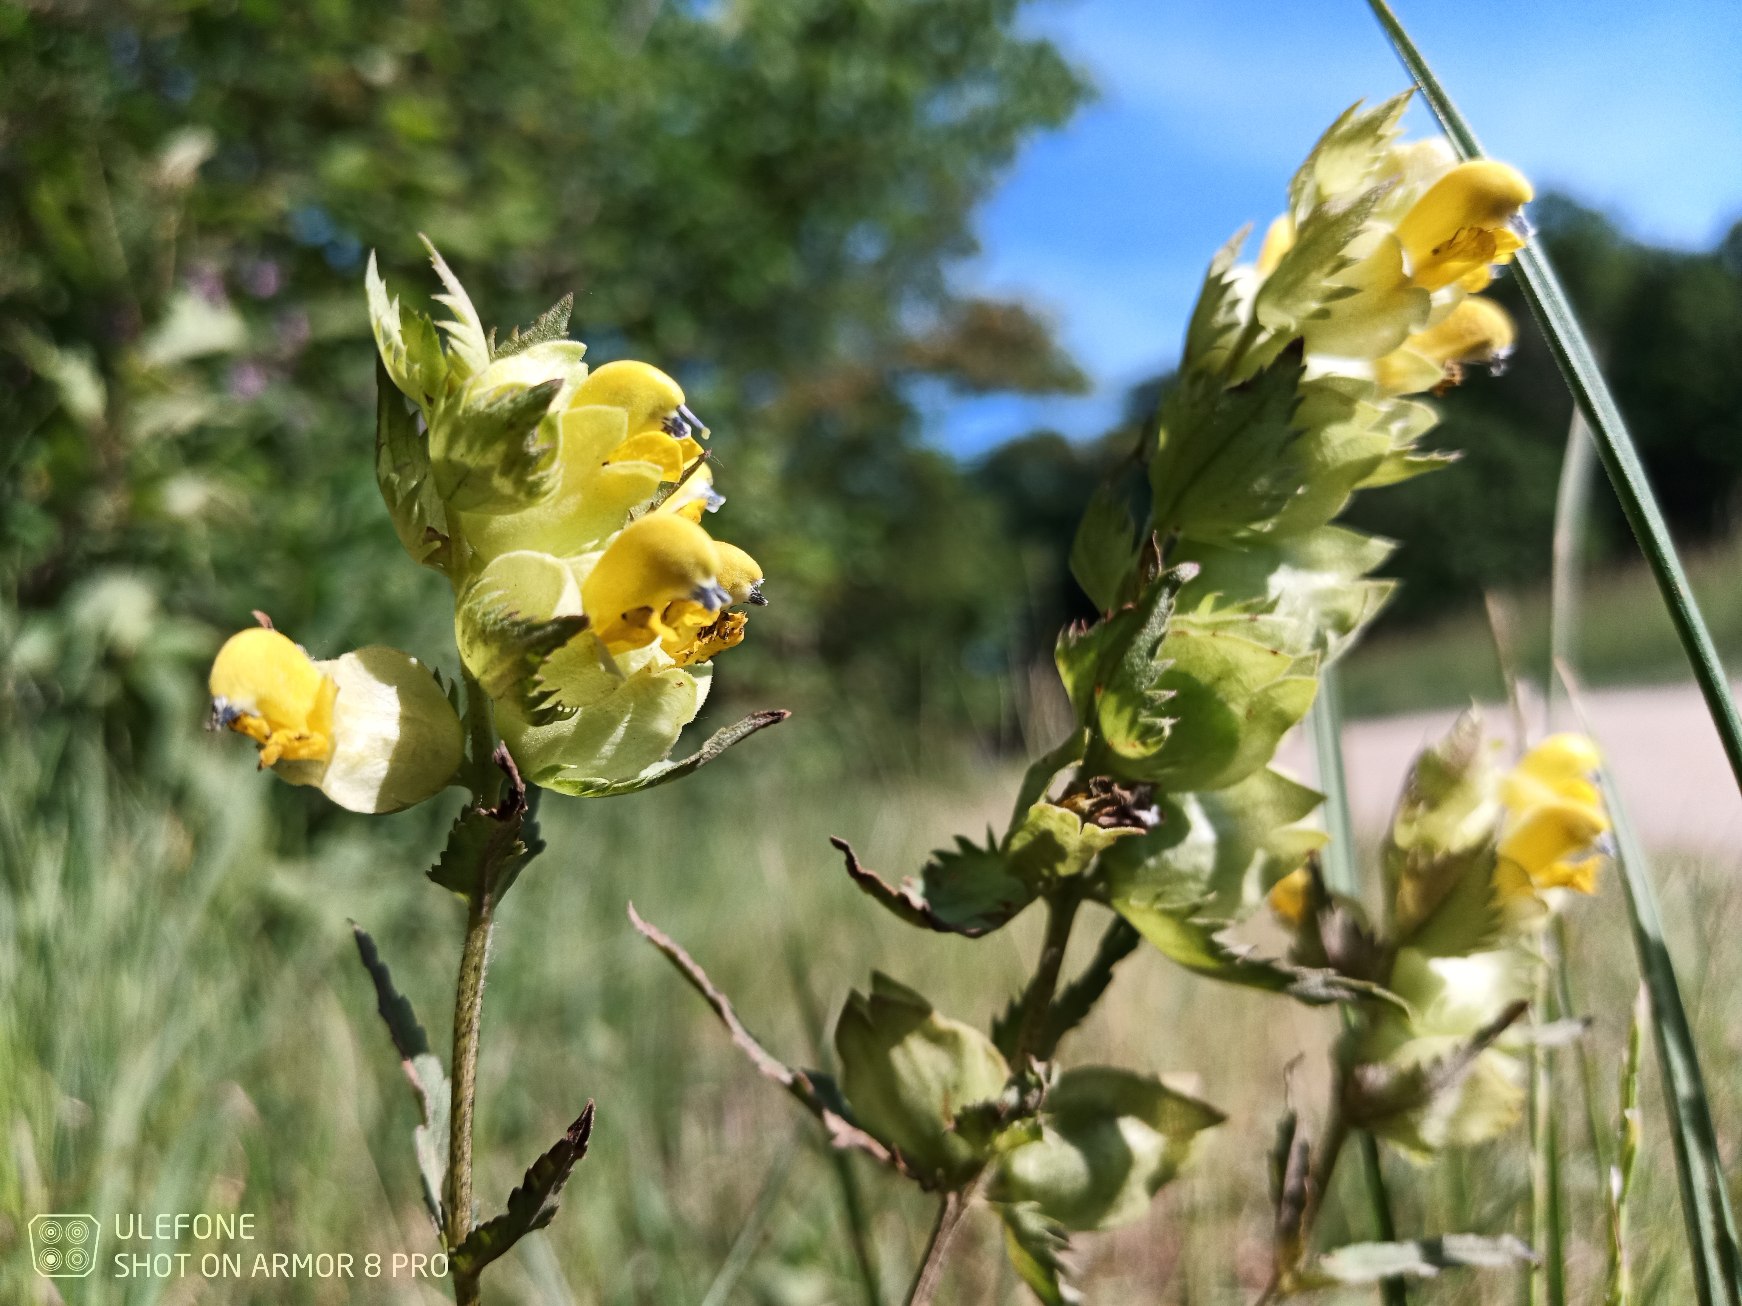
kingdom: Plantae
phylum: Tracheophyta
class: Magnoliopsida
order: Lamiales
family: Orobanchaceae
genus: Rhinanthus
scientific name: Rhinanthus
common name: Stor skjaller
